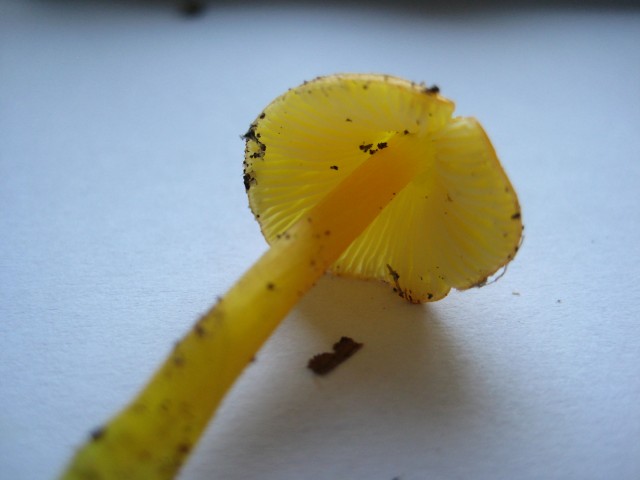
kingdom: Fungi
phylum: Basidiomycota
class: Agaricomycetes
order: Agaricales
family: Hygrophoraceae
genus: Hygrocybe
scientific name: Hygrocybe chlorophana
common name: gul vokshat
